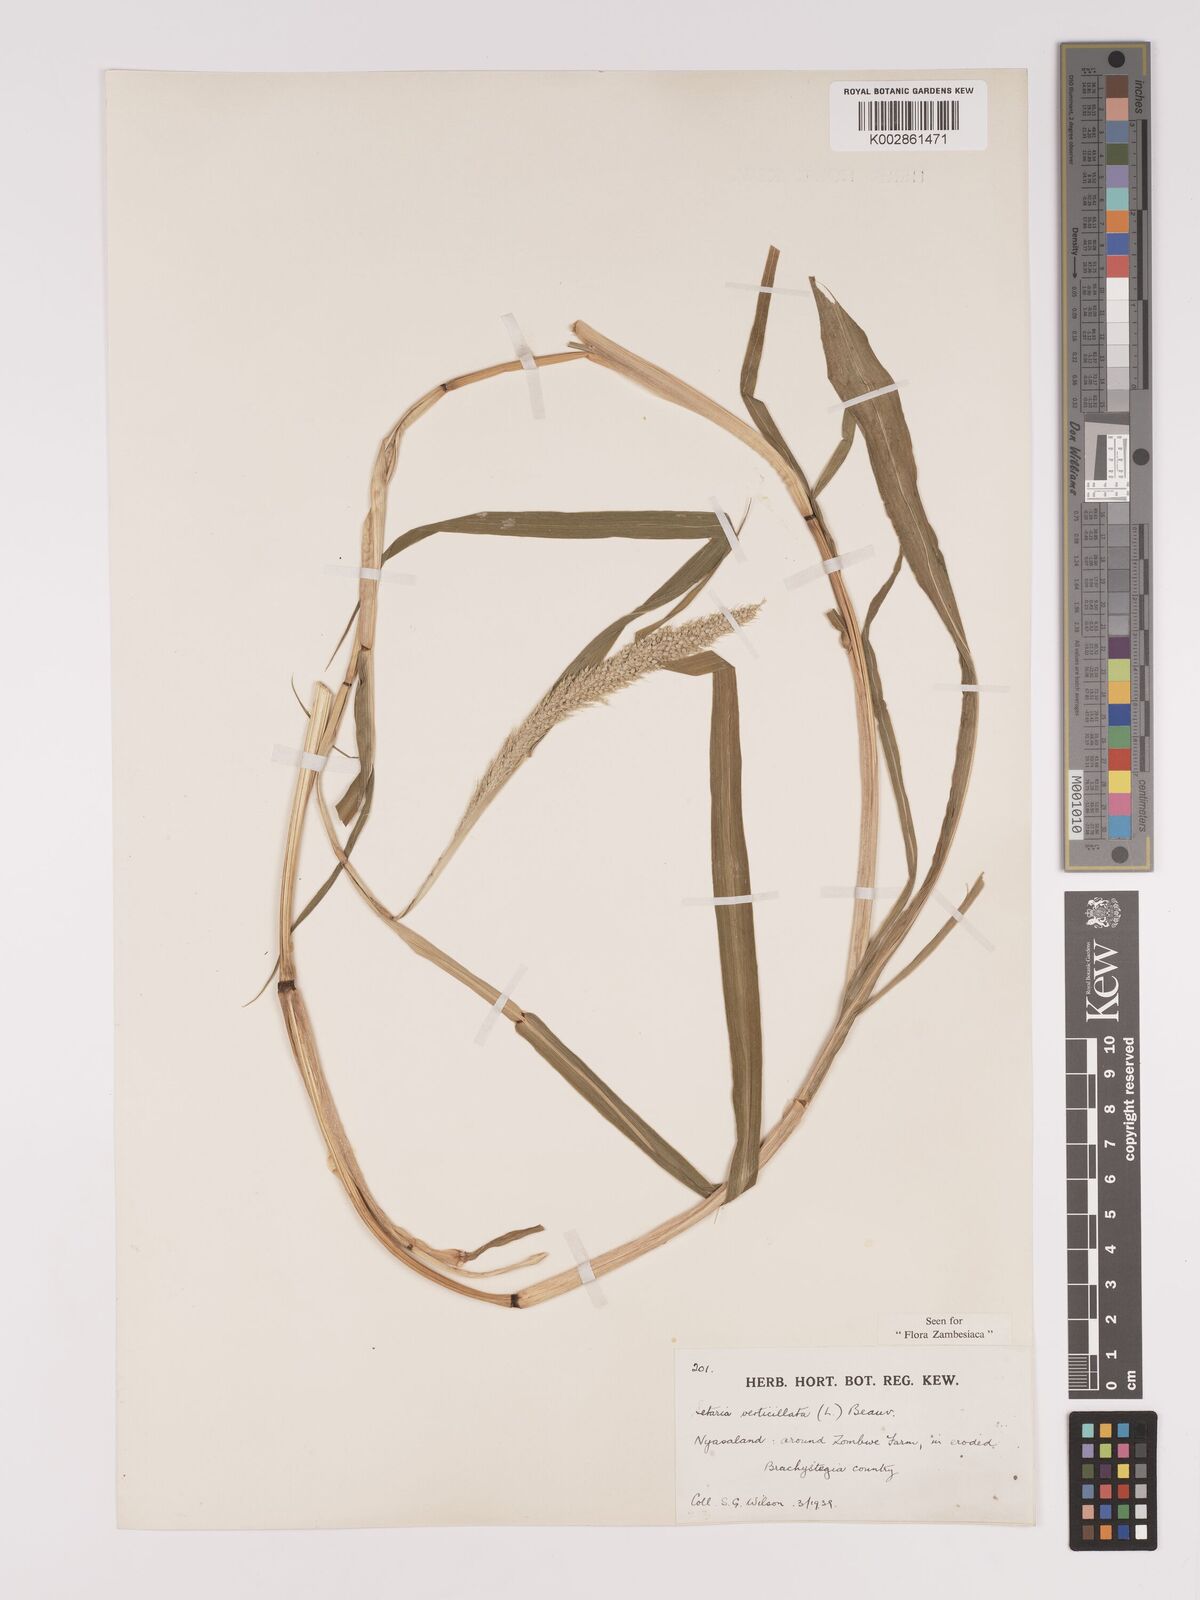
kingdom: Plantae
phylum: Tracheophyta
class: Liliopsida
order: Poales
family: Poaceae
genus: Setaria
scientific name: Setaria verticillata
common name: Hooked bristlegrass
